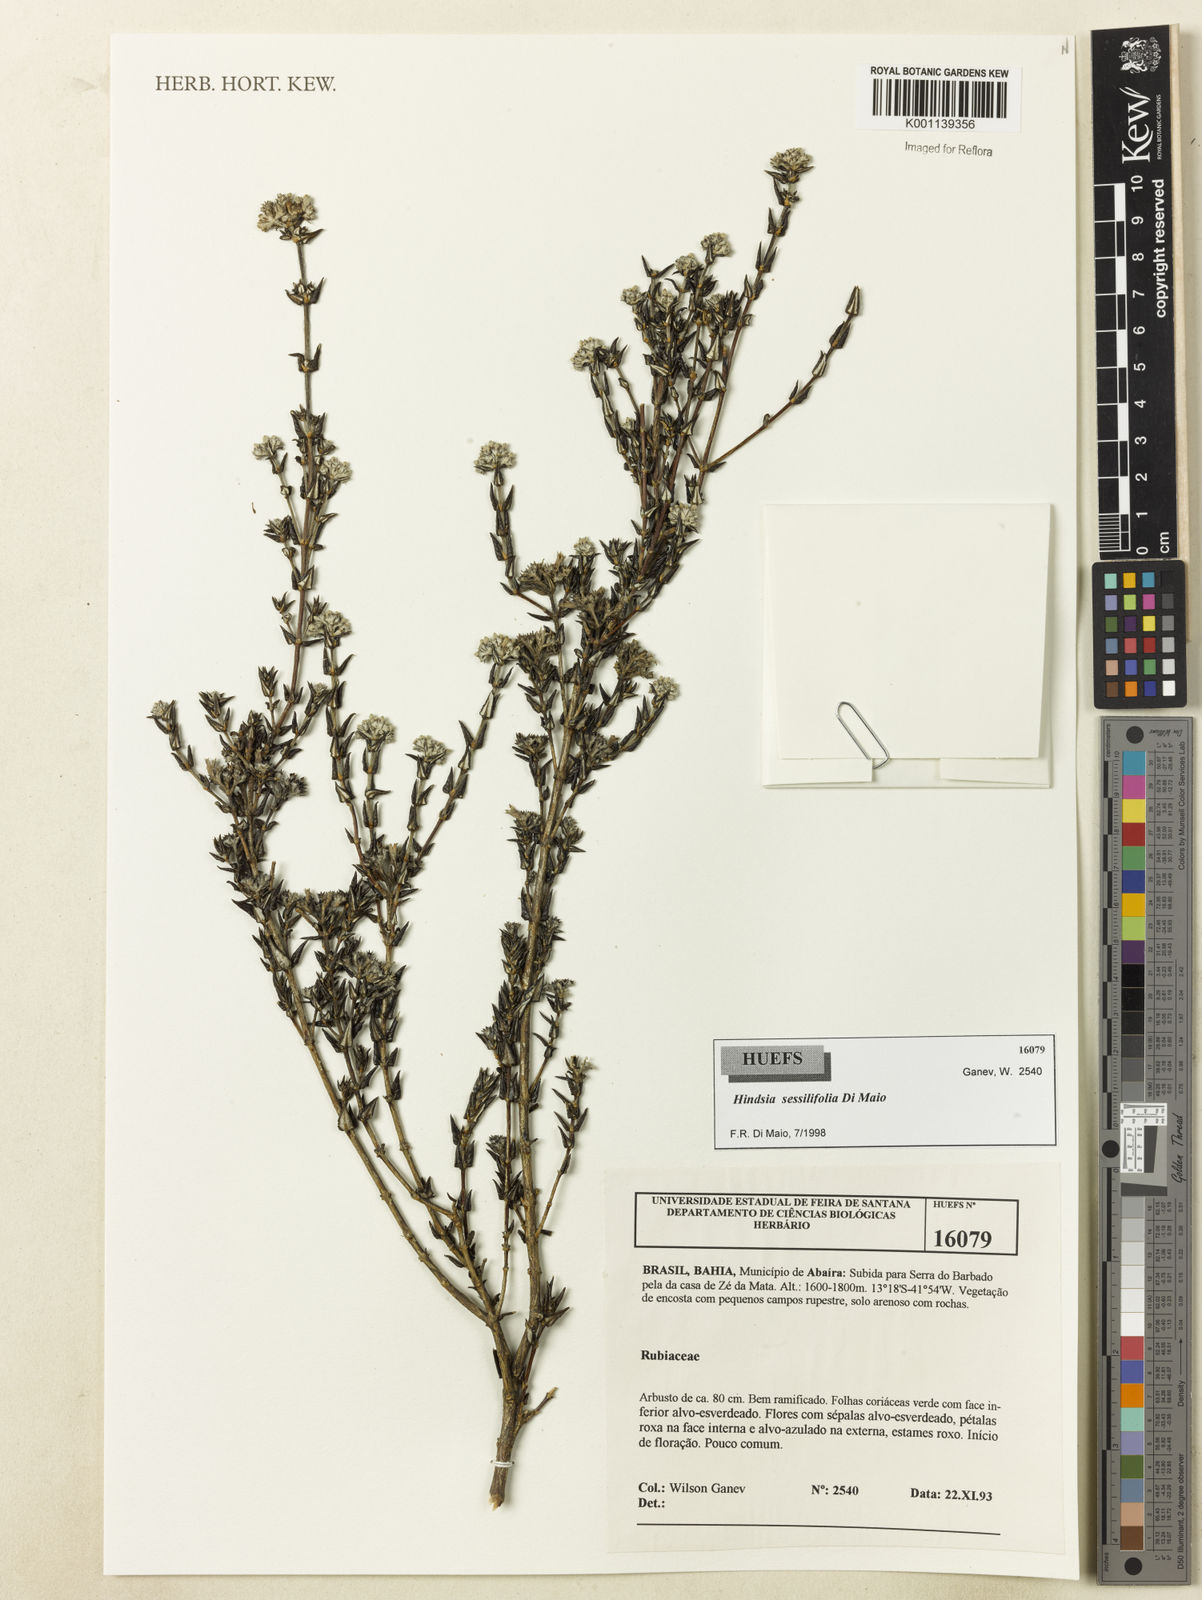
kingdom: Plantae
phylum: Tracheophyta
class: Magnoliopsida
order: Gentianales
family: Rubiaceae
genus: Hindsia
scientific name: Hindsia sessilifolia
